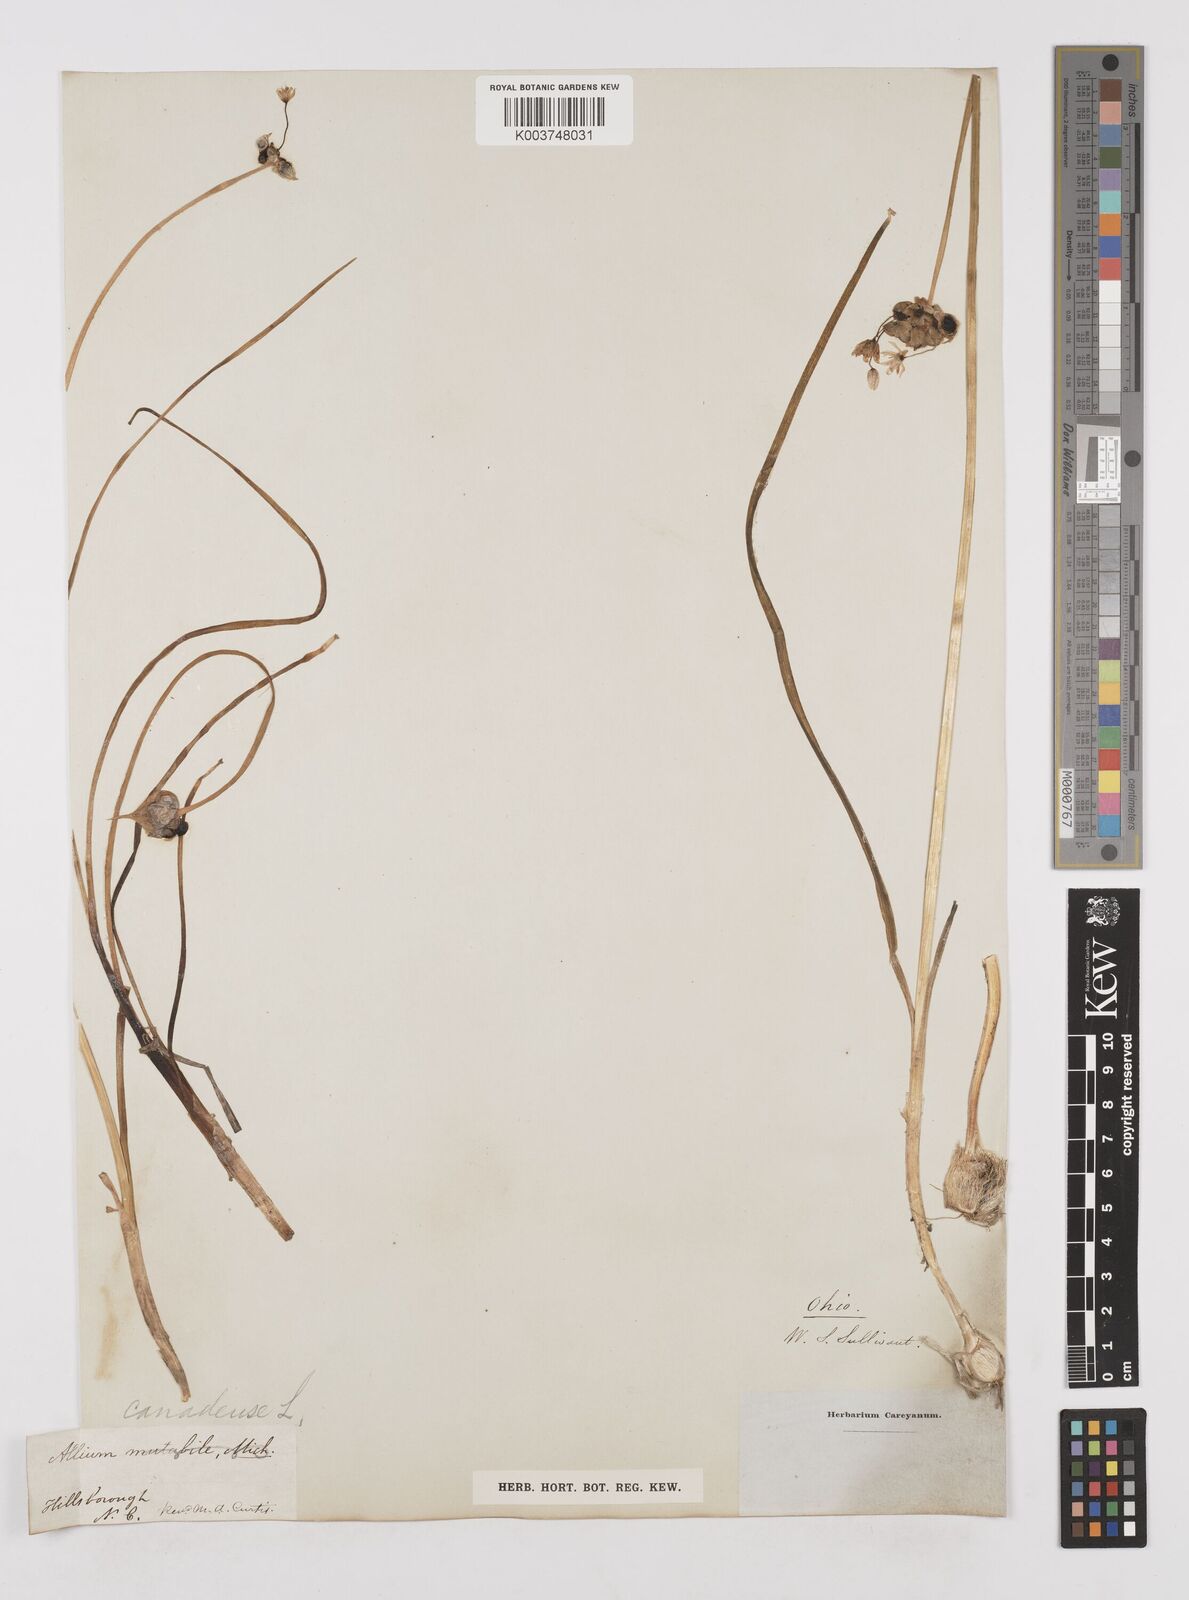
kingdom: Plantae
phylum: Tracheophyta
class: Liliopsida
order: Asparagales
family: Amaryllidaceae
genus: Allium
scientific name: Allium canadense
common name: Meadow garlic
